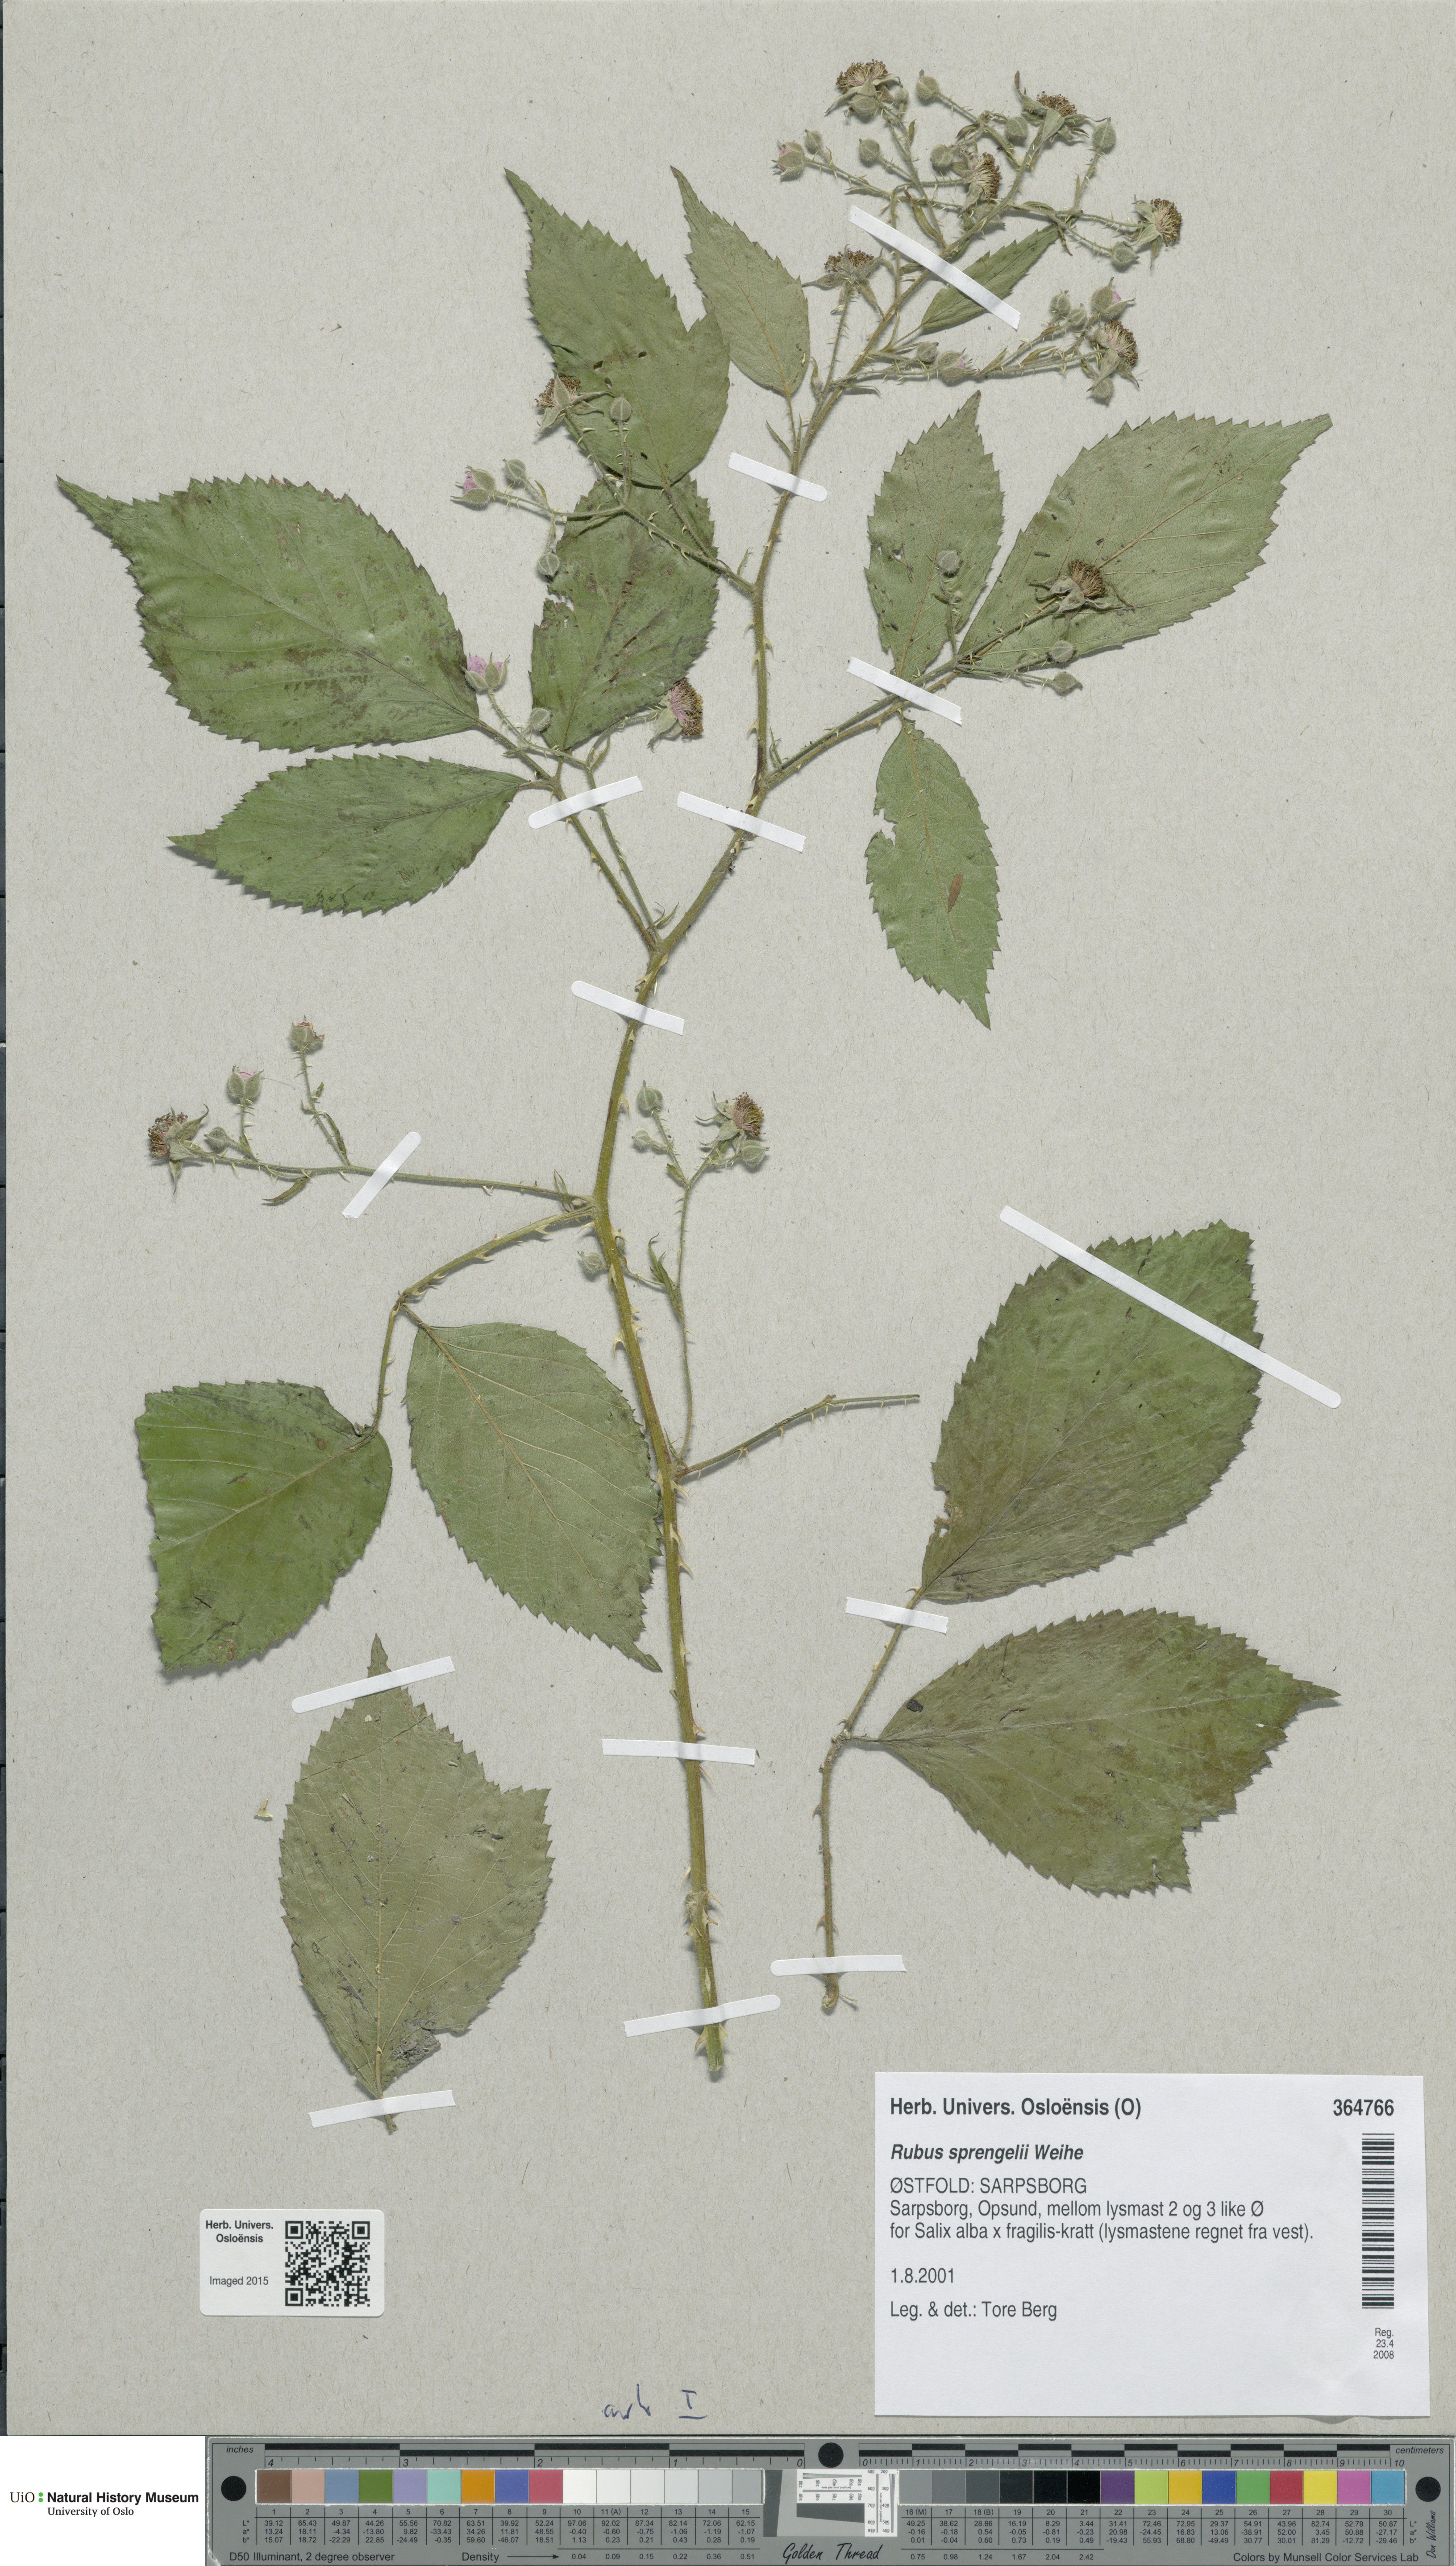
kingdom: Plantae
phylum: Tracheophyta
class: Magnoliopsida
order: Rosales
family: Rosaceae
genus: Rubus
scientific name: Rubus sprengelii
